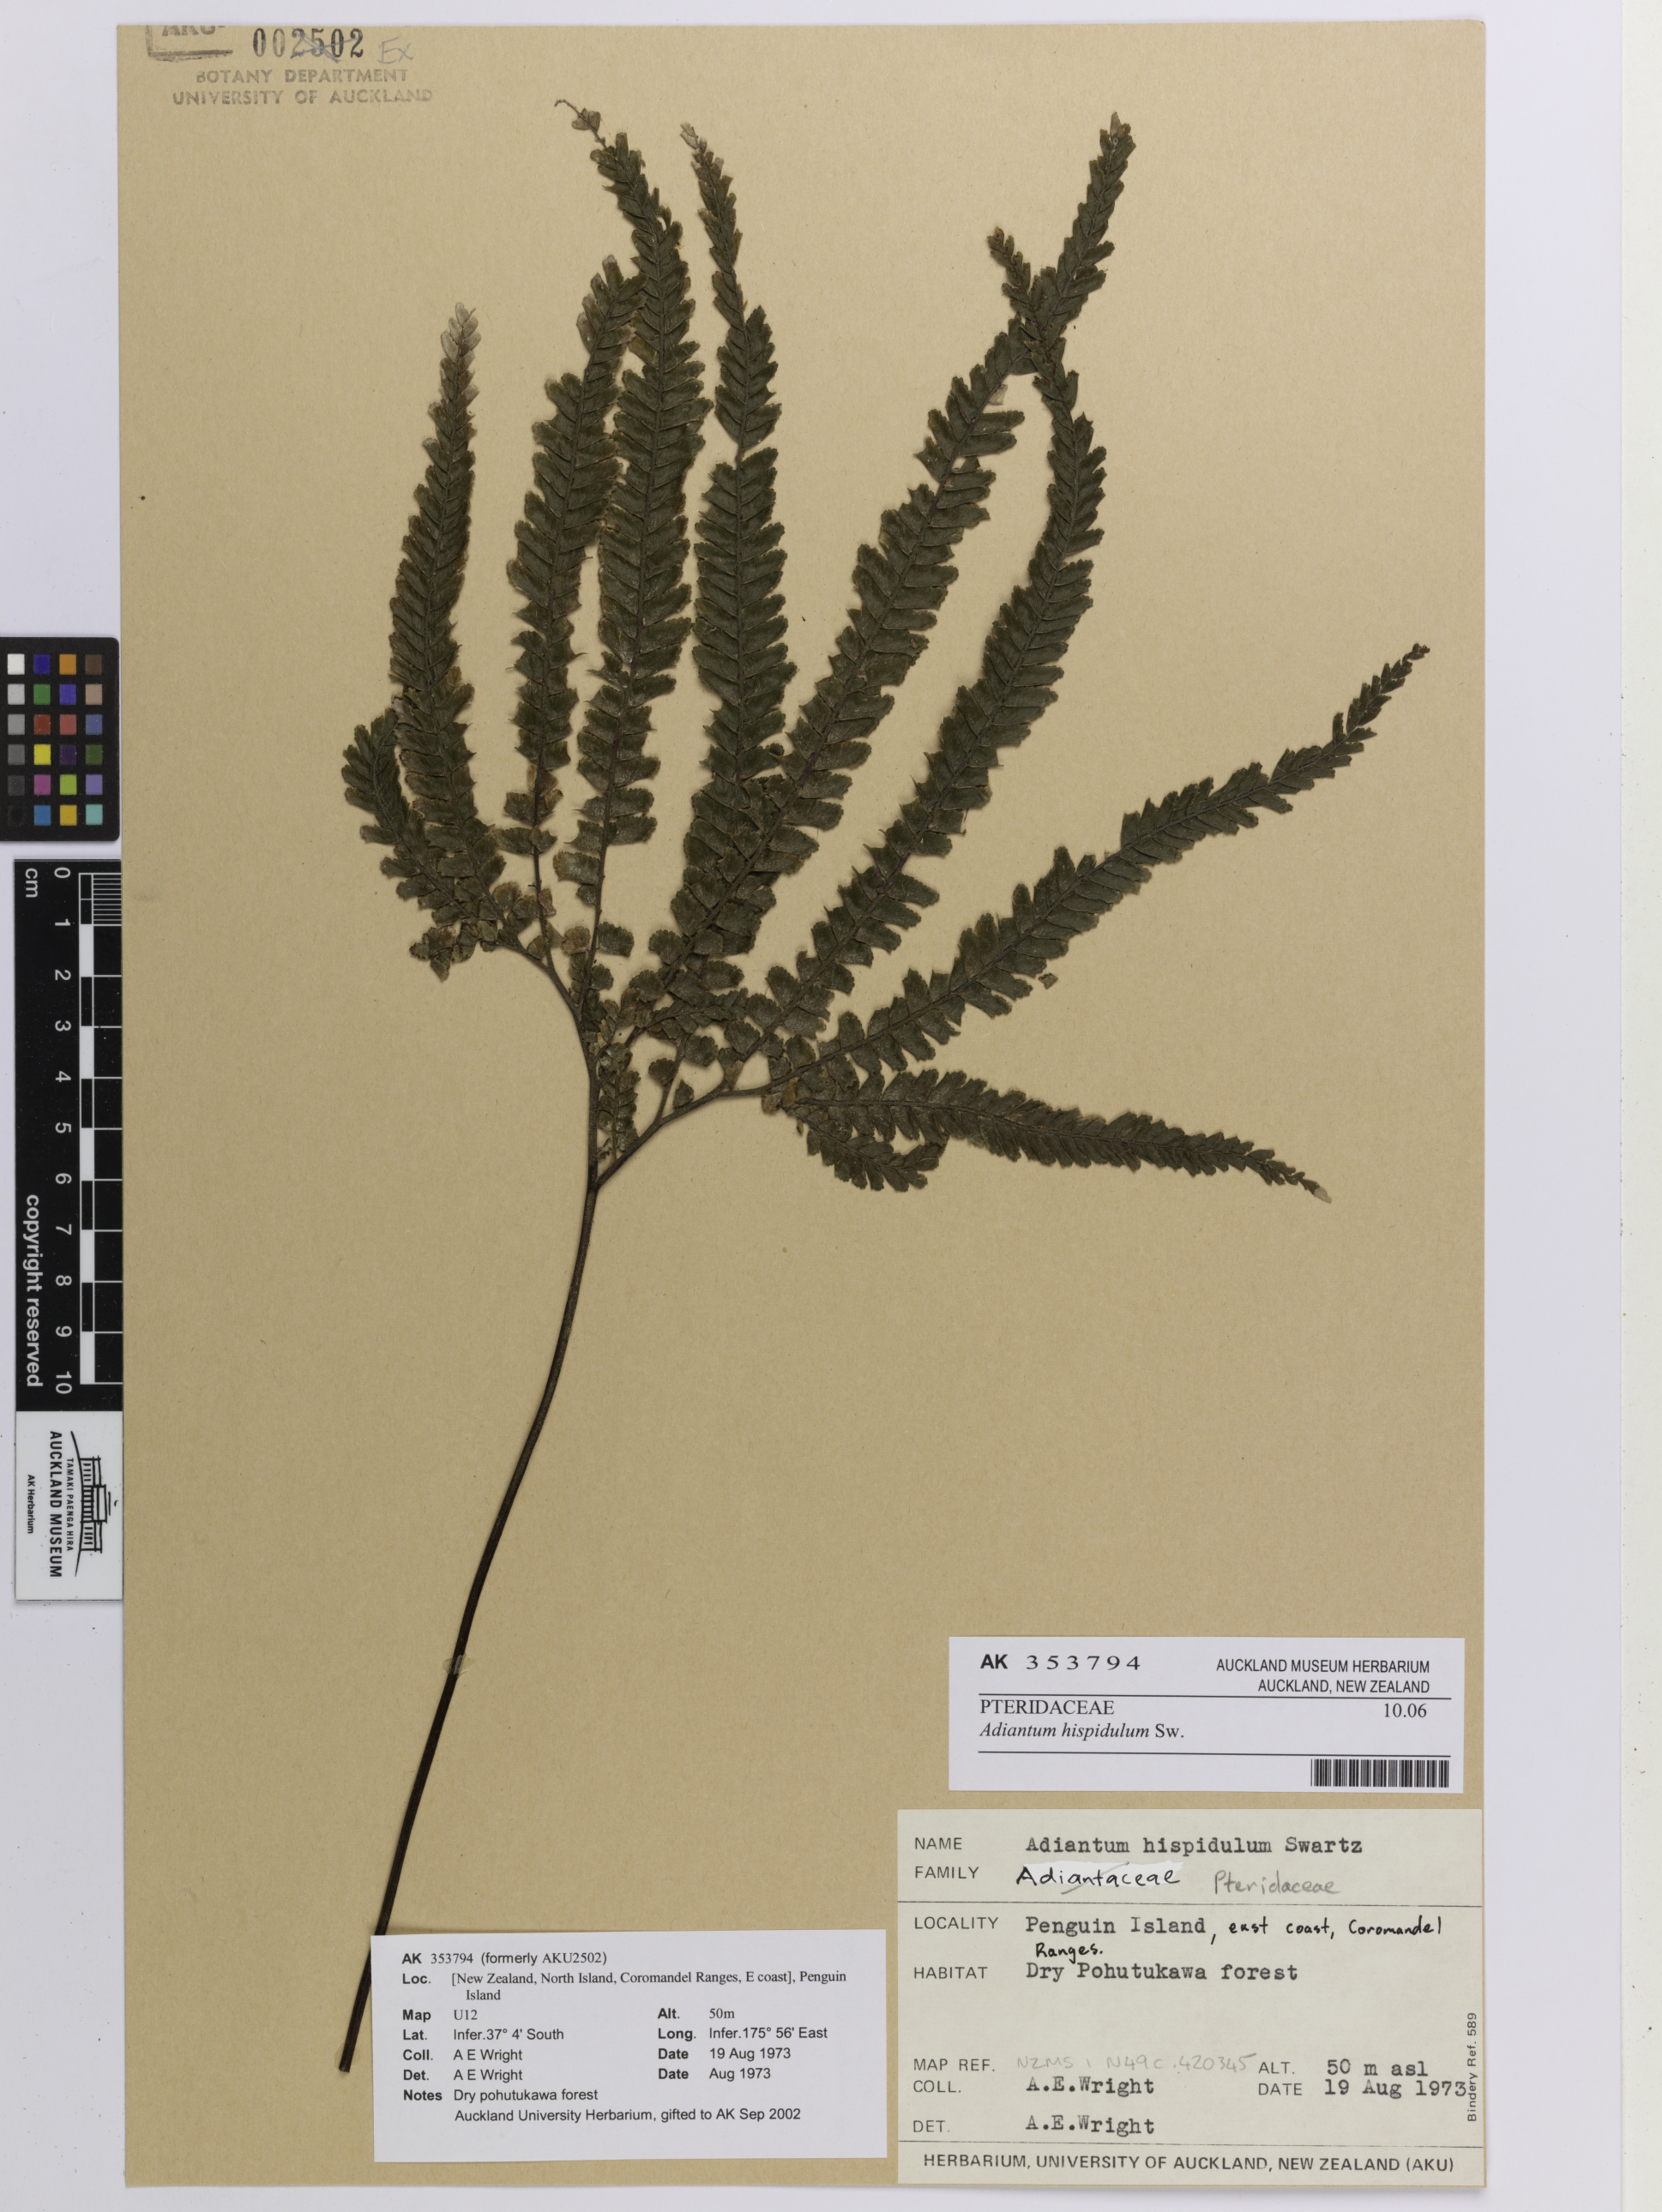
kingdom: Plantae
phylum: Tracheophyta
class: Polypodiopsida
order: Polypodiales
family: Pteridaceae
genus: Adiantum
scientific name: Adiantum hispidulum
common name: Rough maidenhair
